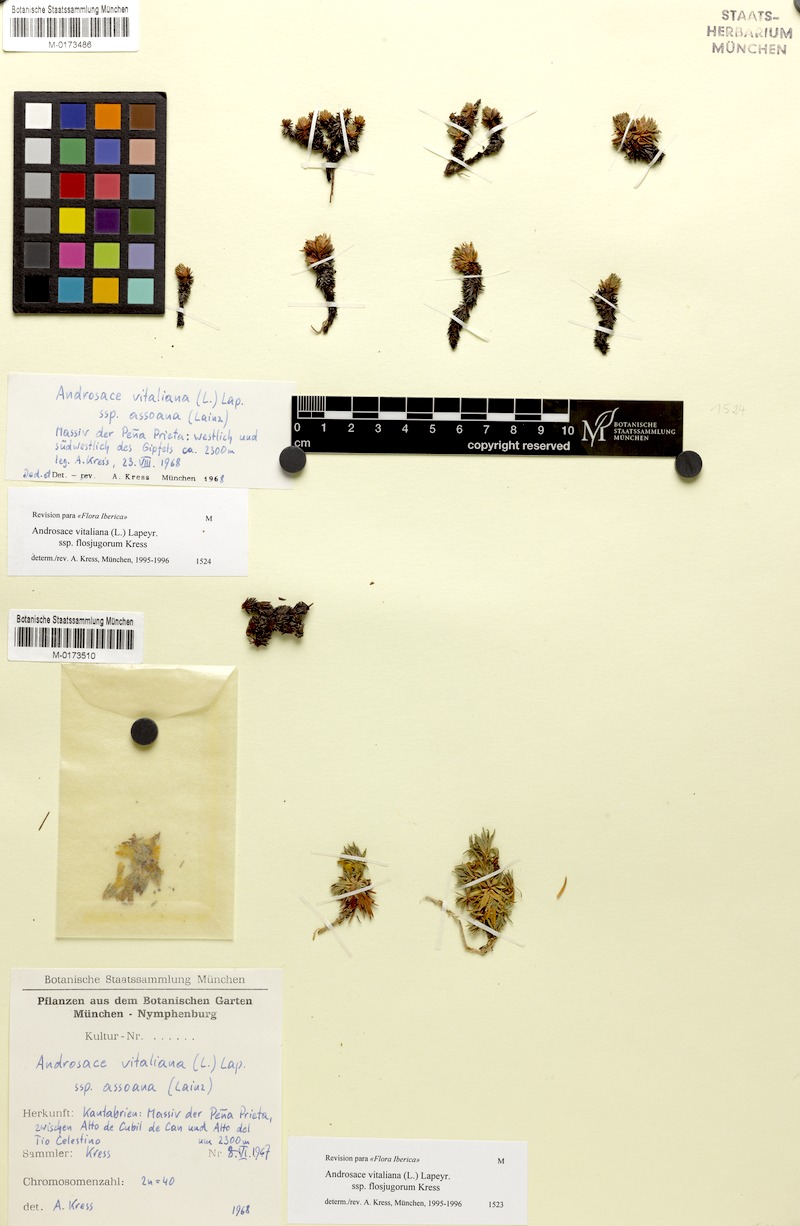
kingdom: Plantae
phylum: Tracheophyta
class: Magnoliopsida
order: Ericales
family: Primulaceae
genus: Androsace
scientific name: Androsace vitaliana
